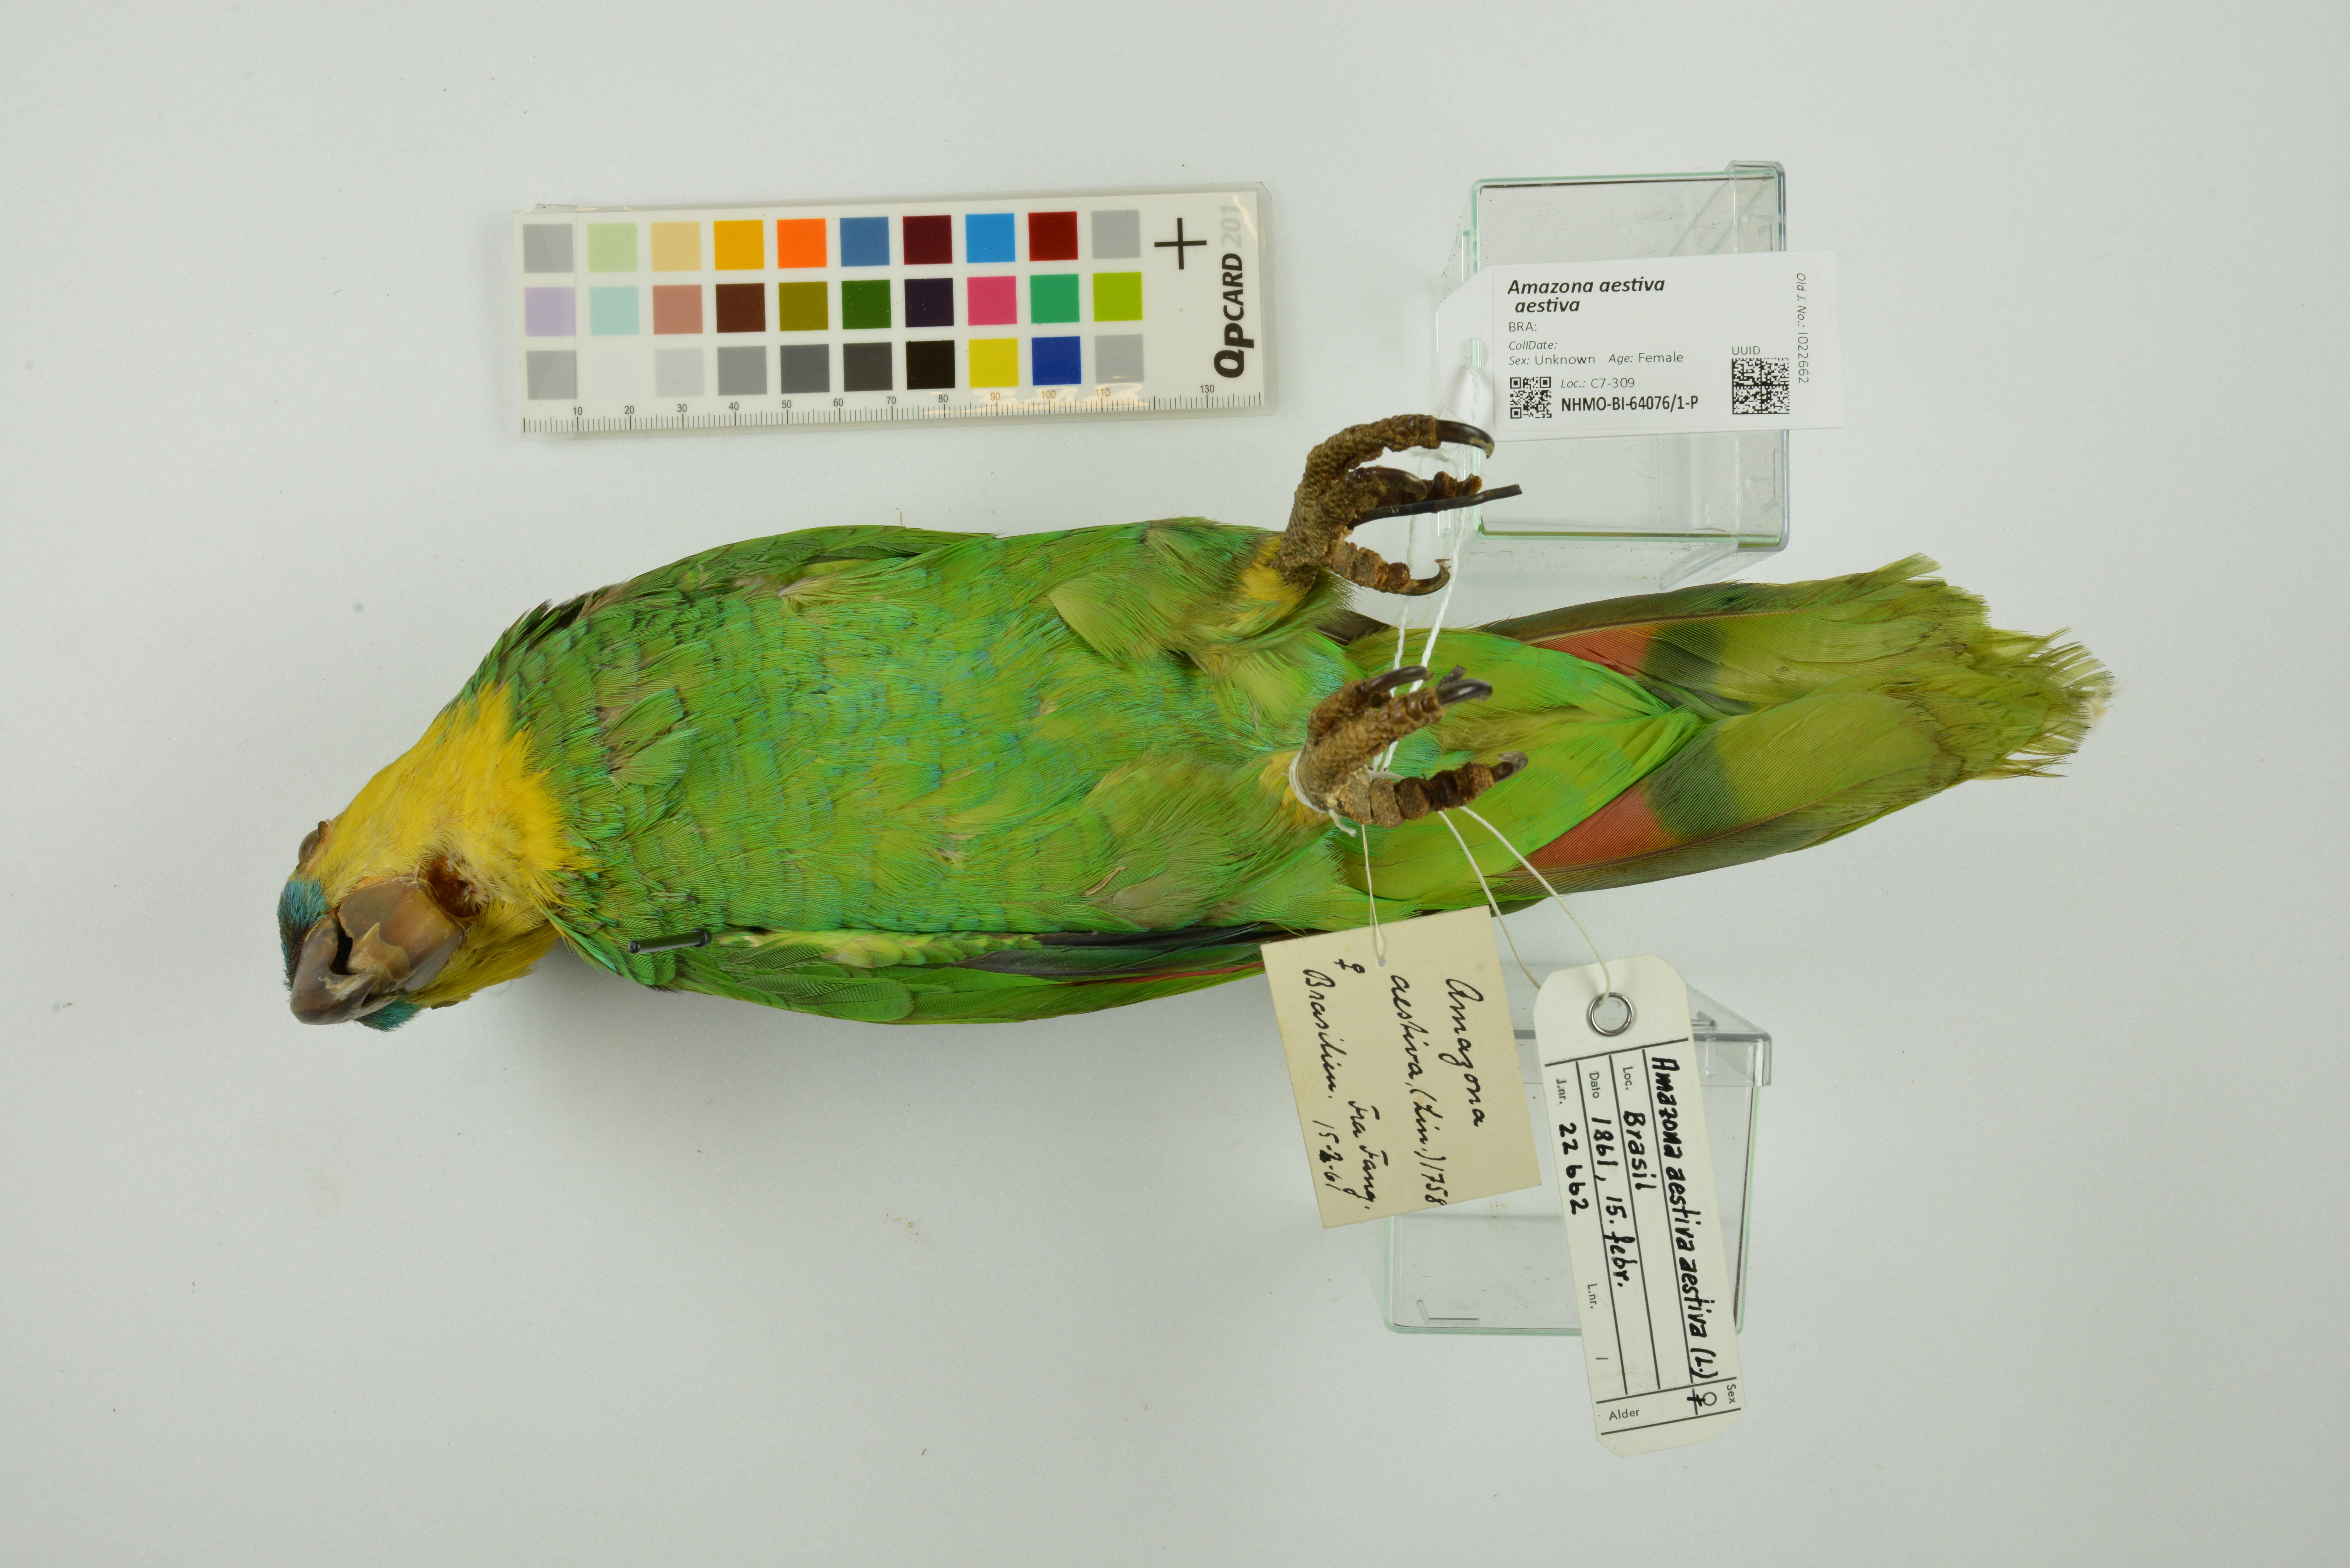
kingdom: Animalia
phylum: Chordata
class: Aves
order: Psittaciformes
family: Psittacidae
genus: Amazona
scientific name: Amazona aestiva
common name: Turquoise-fronted amazon
